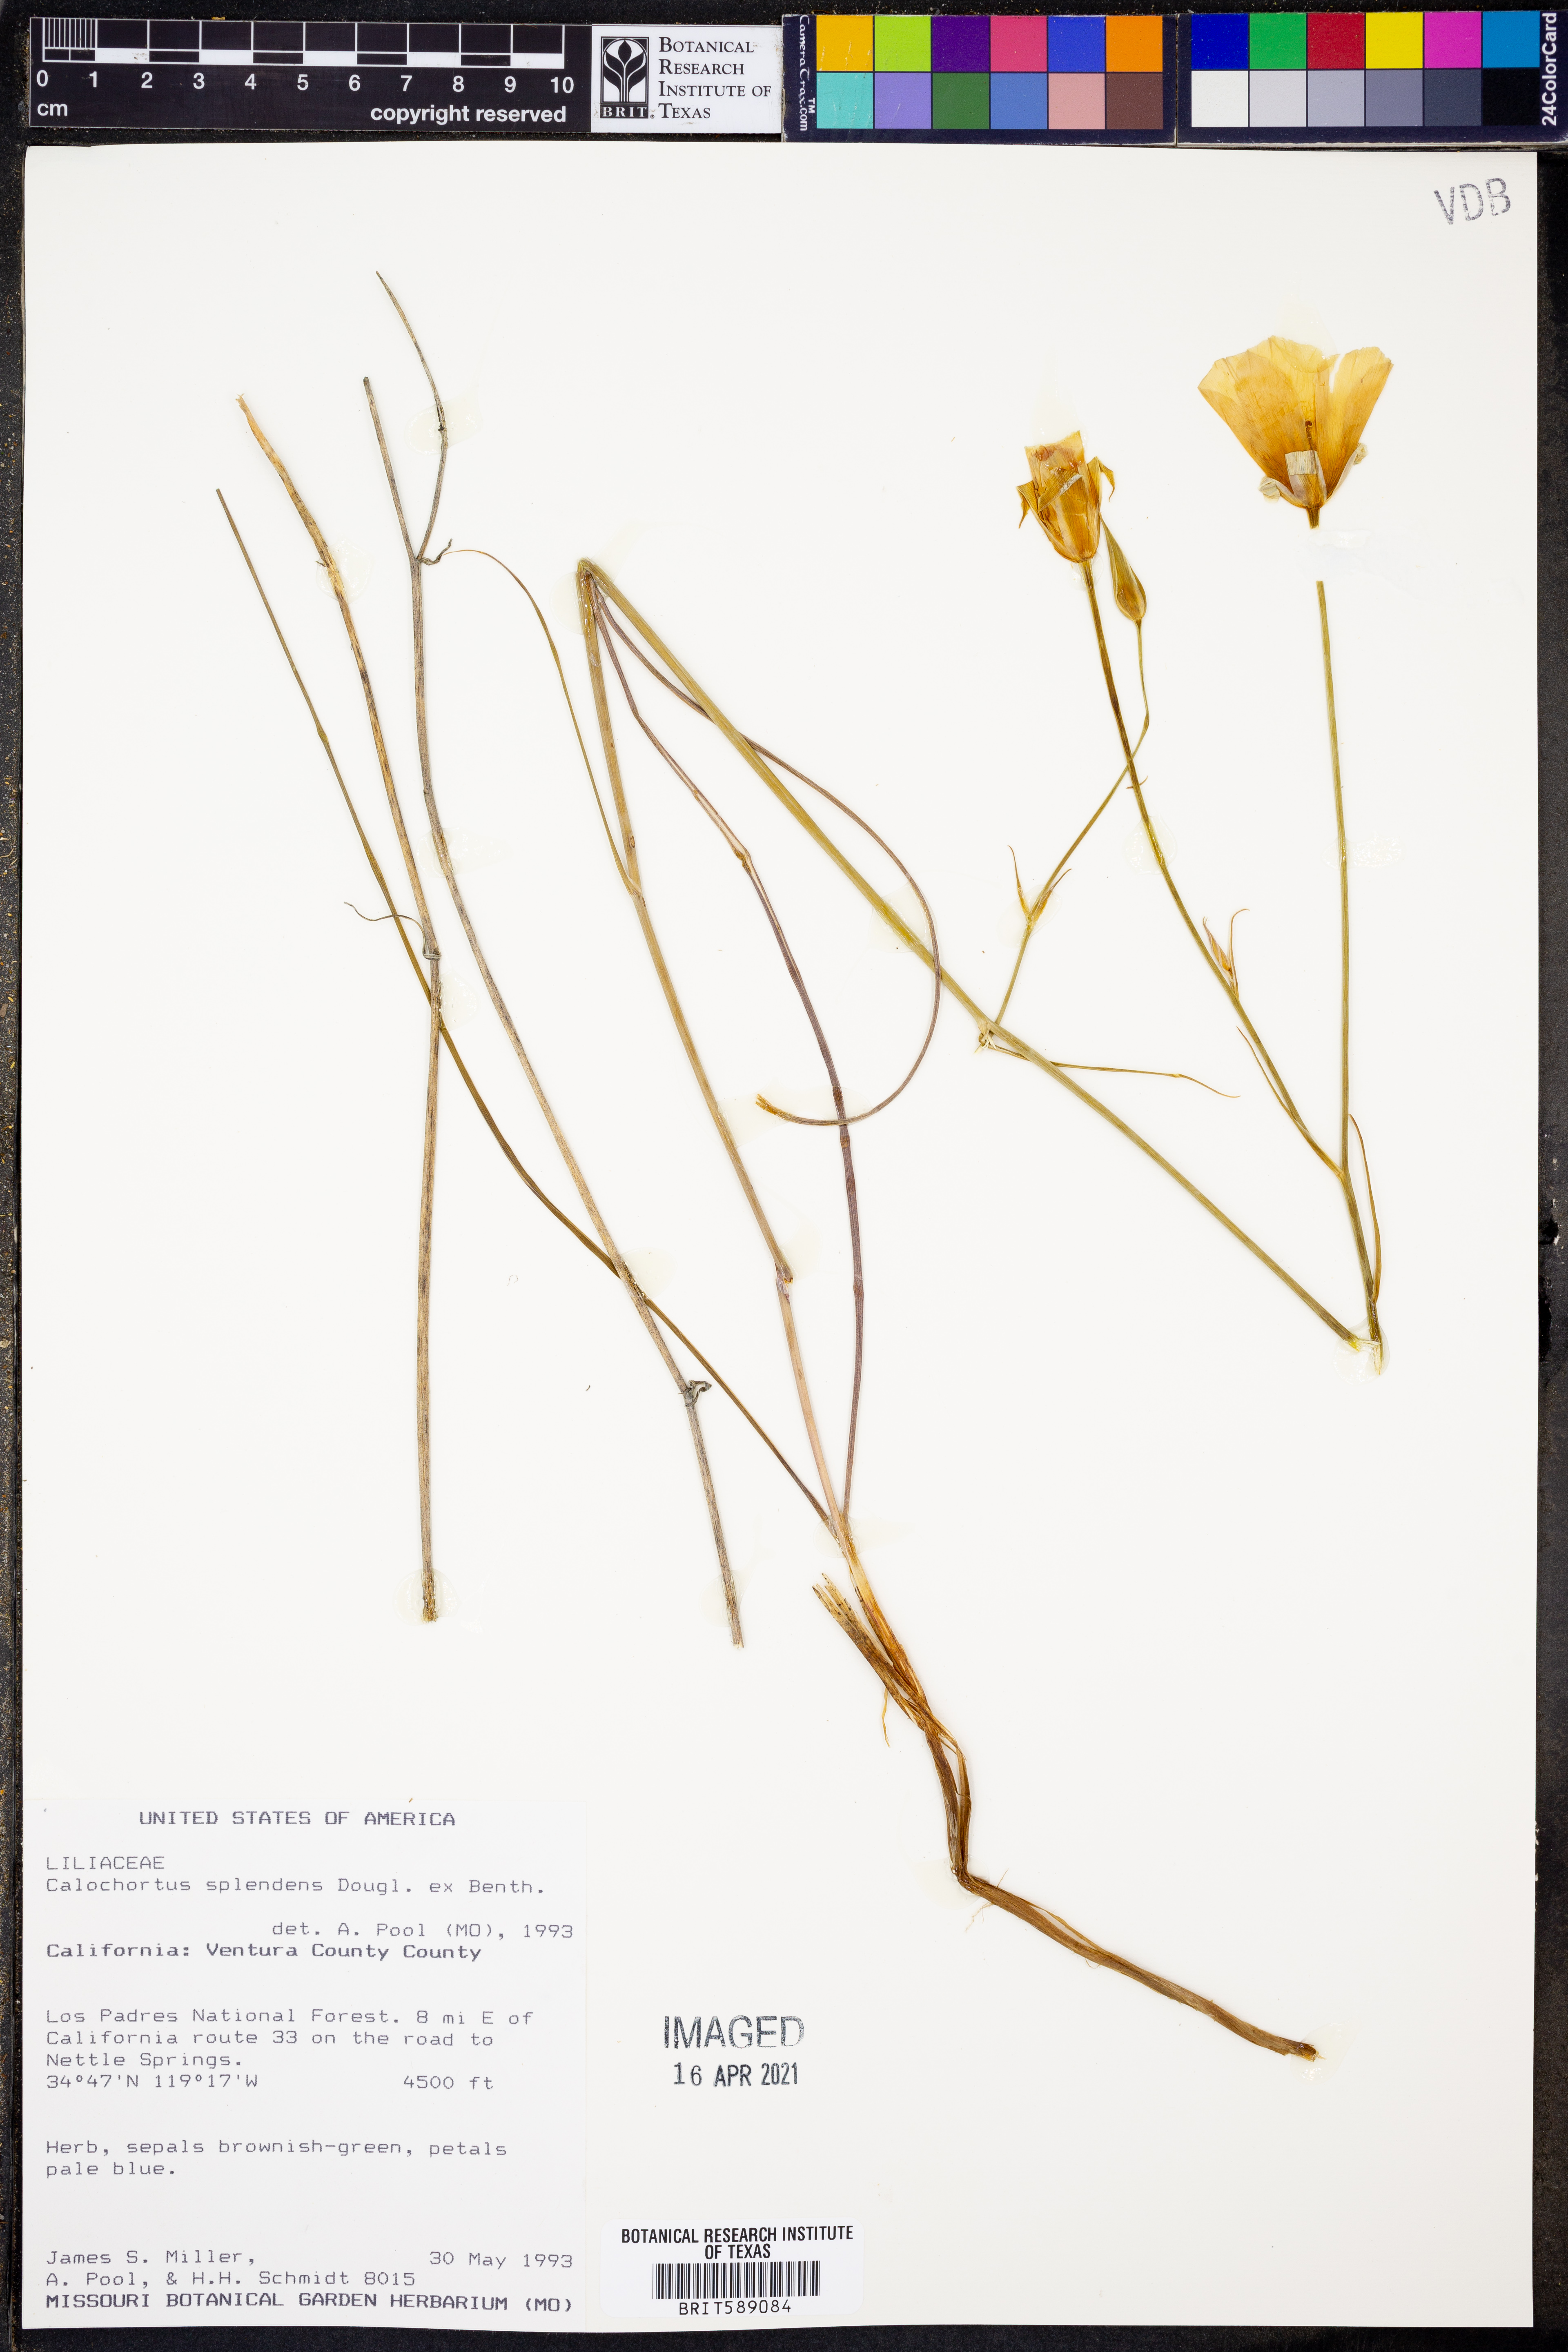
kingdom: Plantae
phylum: Tracheophyta
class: Liliopsida
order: Liliales
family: Liliaceae
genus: Calochortus
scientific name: Calochortus splendens
